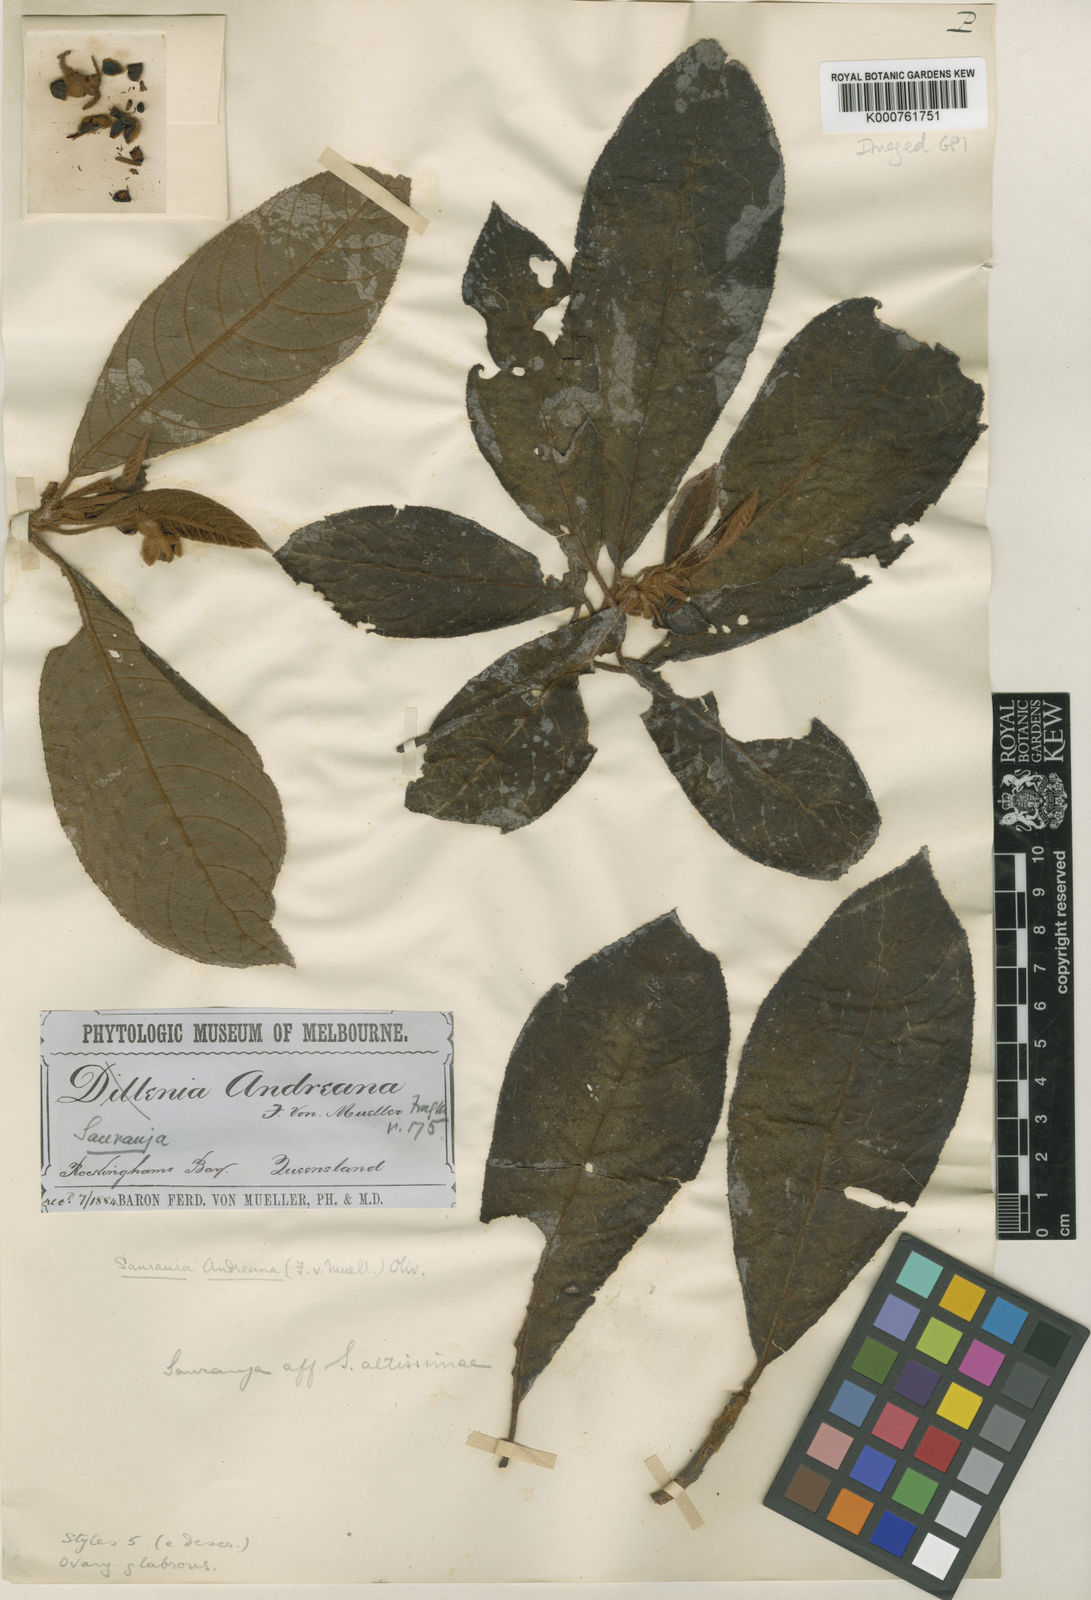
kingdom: Plantae
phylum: Tracheophyta
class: Magnoliopsida
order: Ericales
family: Actinidiaceae
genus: Saurauia
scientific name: Saurauia andreana
